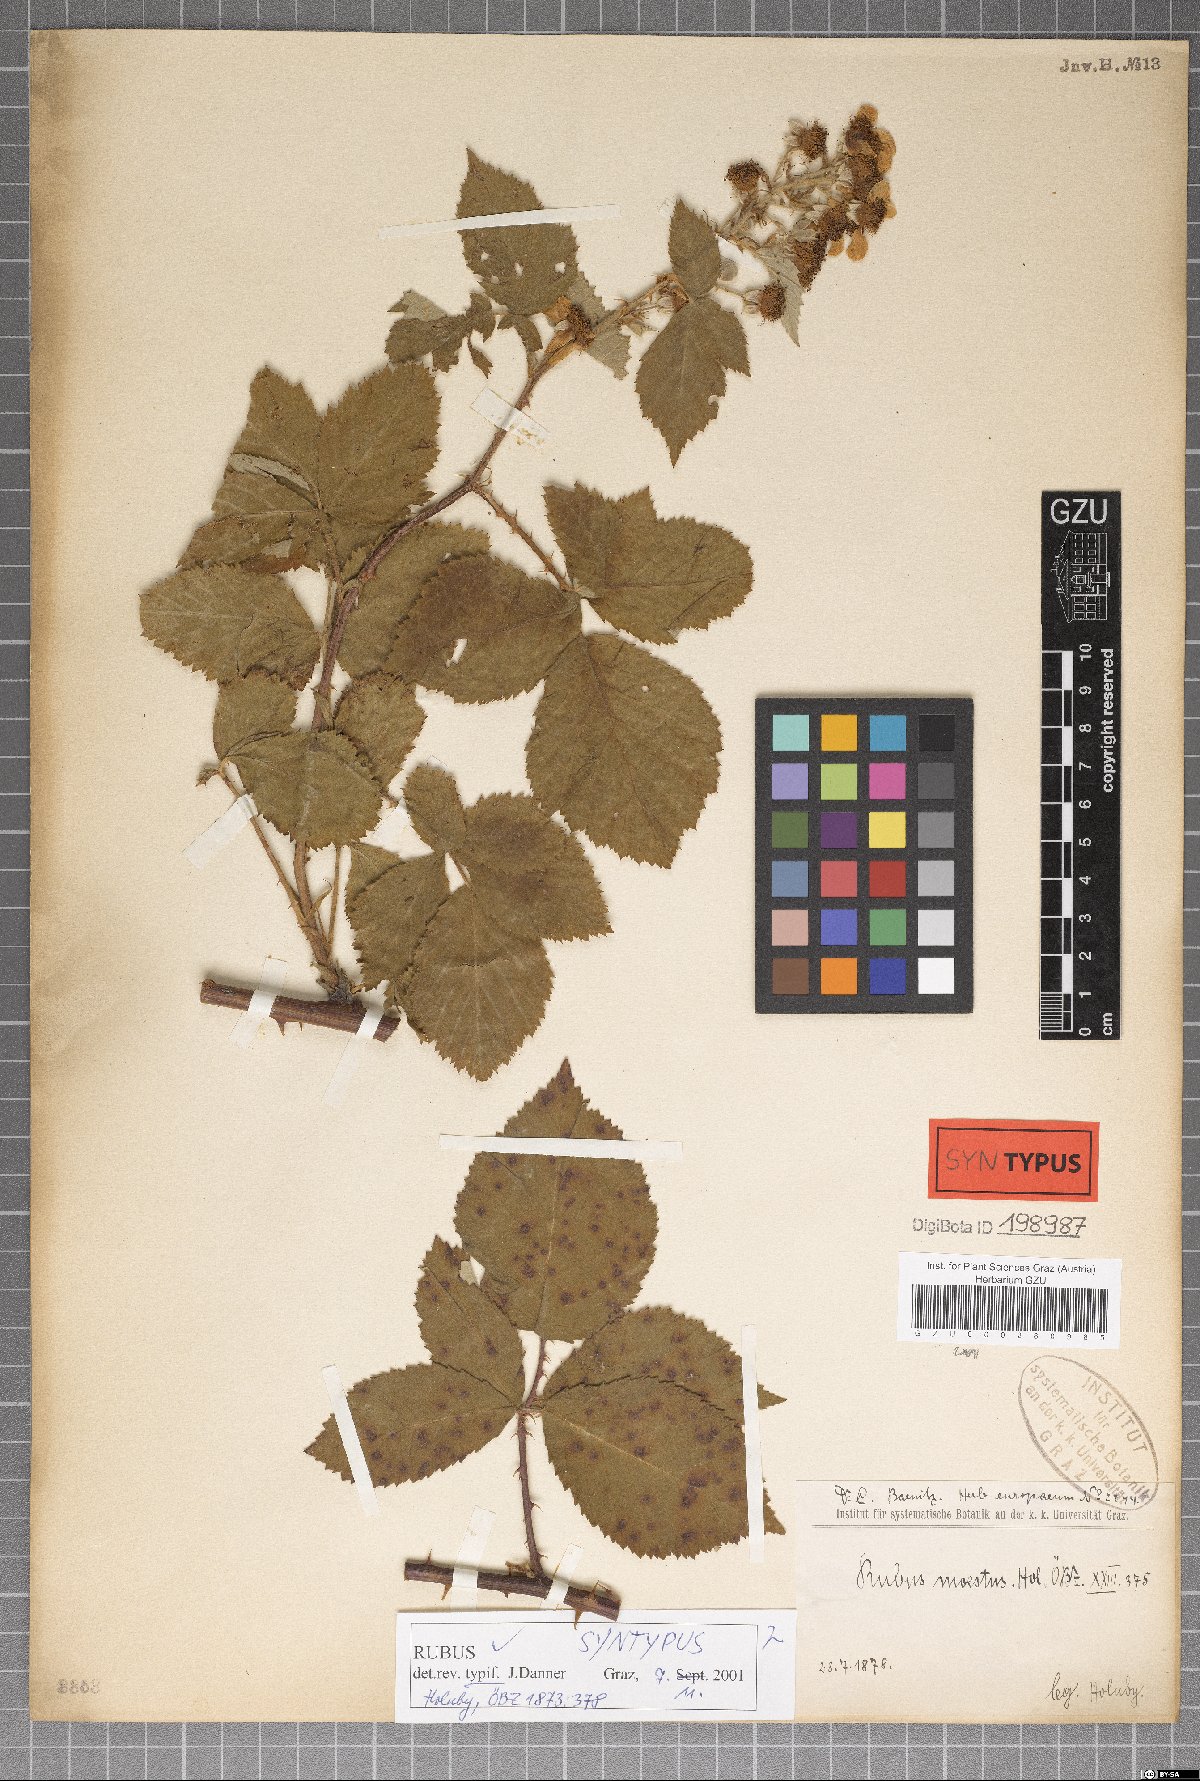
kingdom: Plantae
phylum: Tracheophyta
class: Magnoliopsida
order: Rosales
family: Rosaceae
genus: Rubus
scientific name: Rubus moestus
